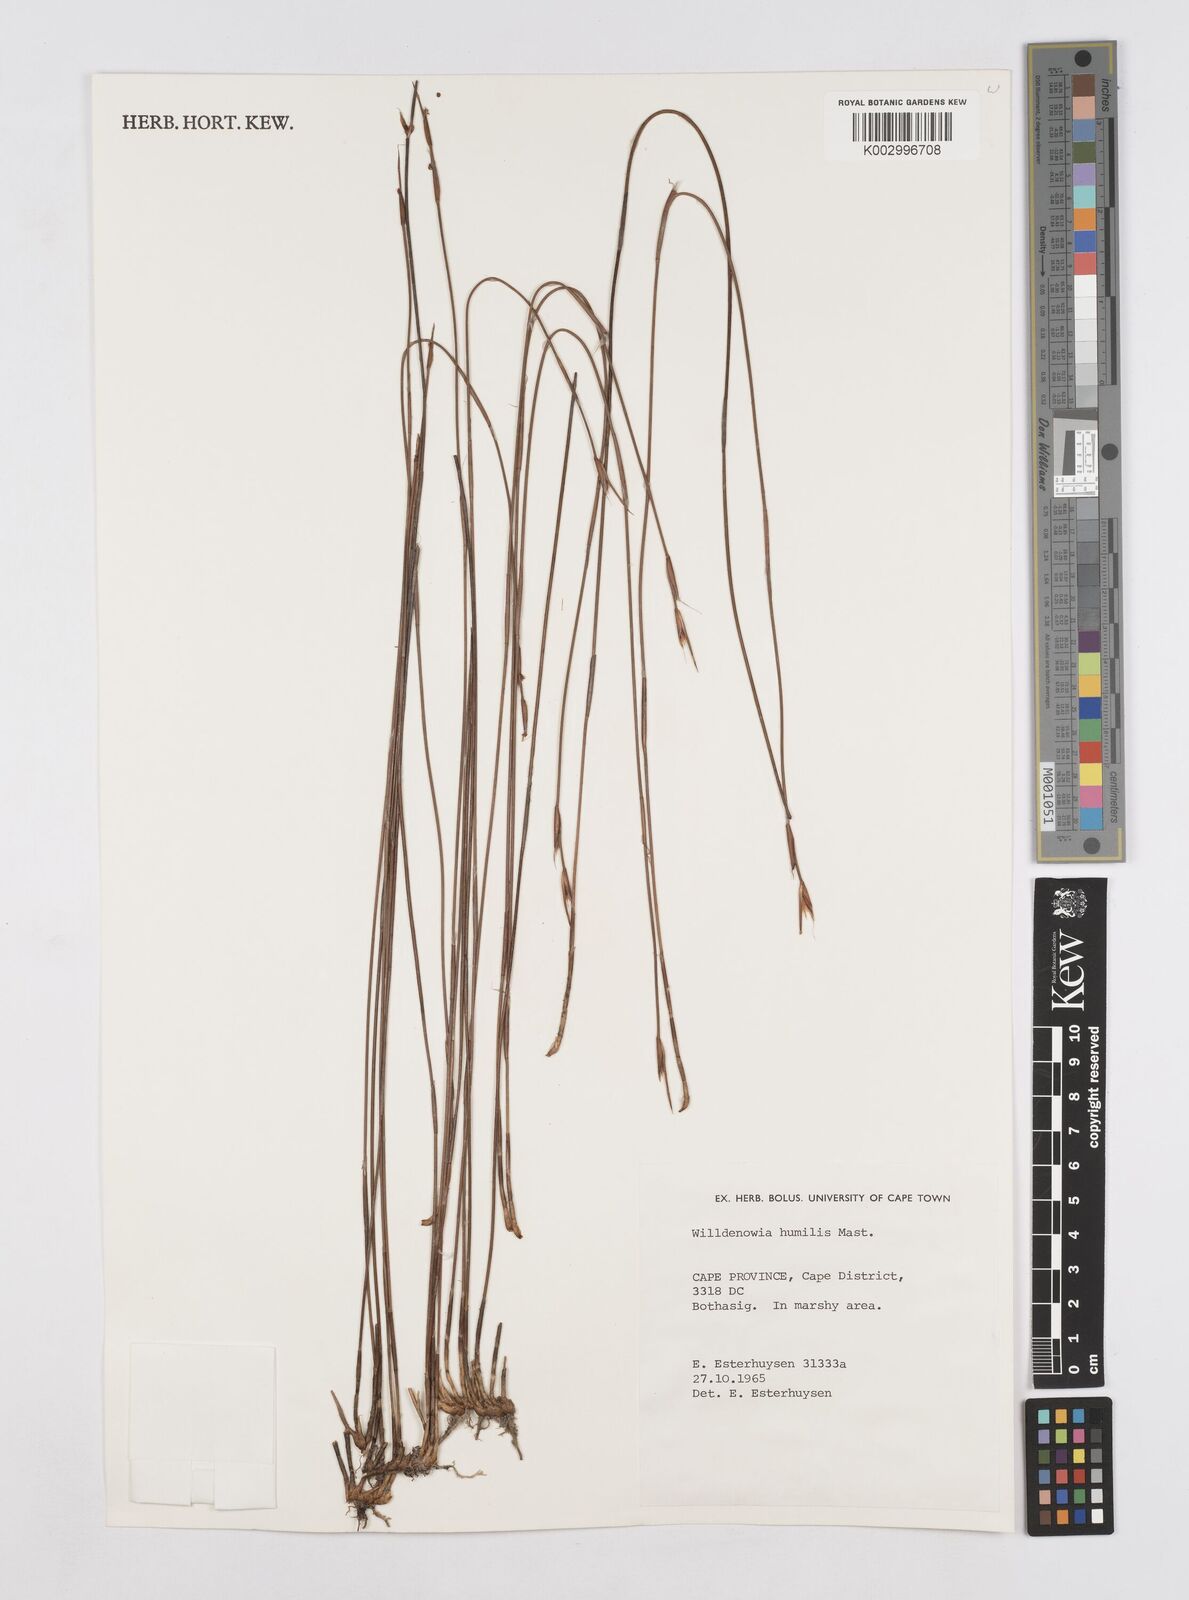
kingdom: Plantae
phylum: Tracheophyta
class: Liliopsida
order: Poales
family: Restionaceae
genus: Willdenowia
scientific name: Willdenowia humilis
